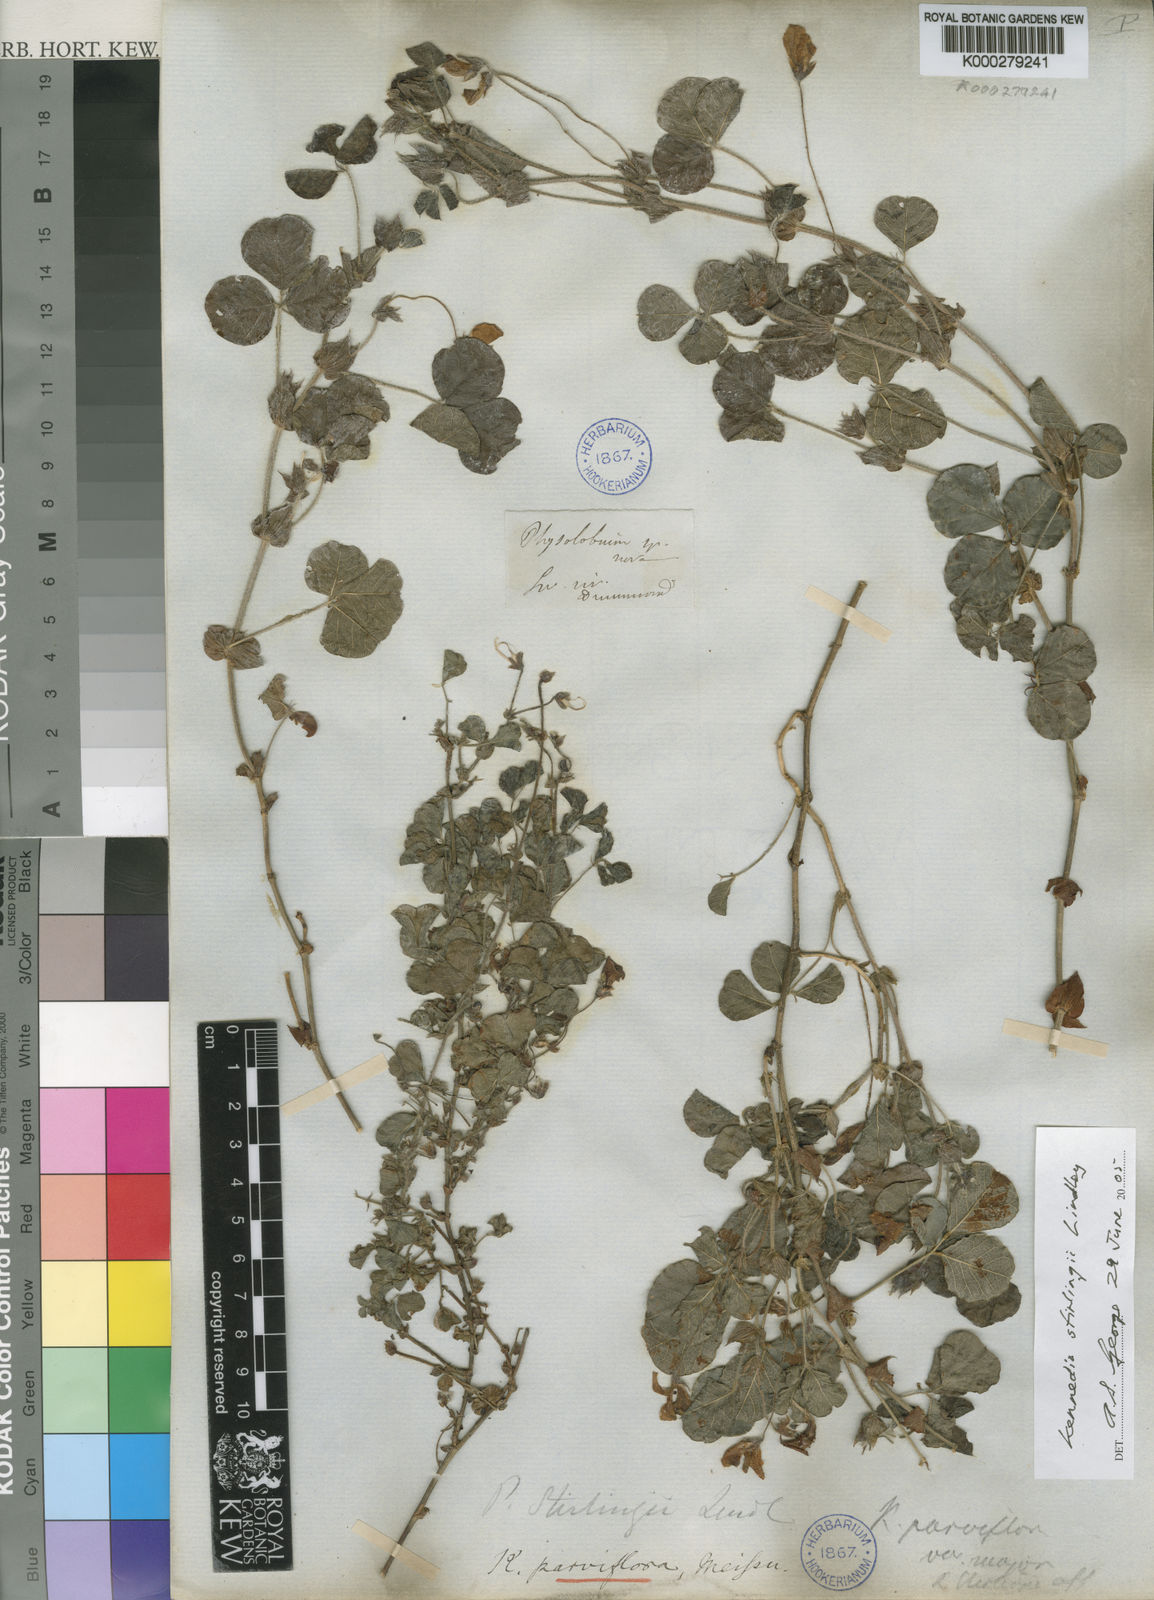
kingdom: Plantae
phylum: Tracheophyta
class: Magnoliopsida
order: Fabales
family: Fabaceae
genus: Kennedia
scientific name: Kennedia stirlingii
